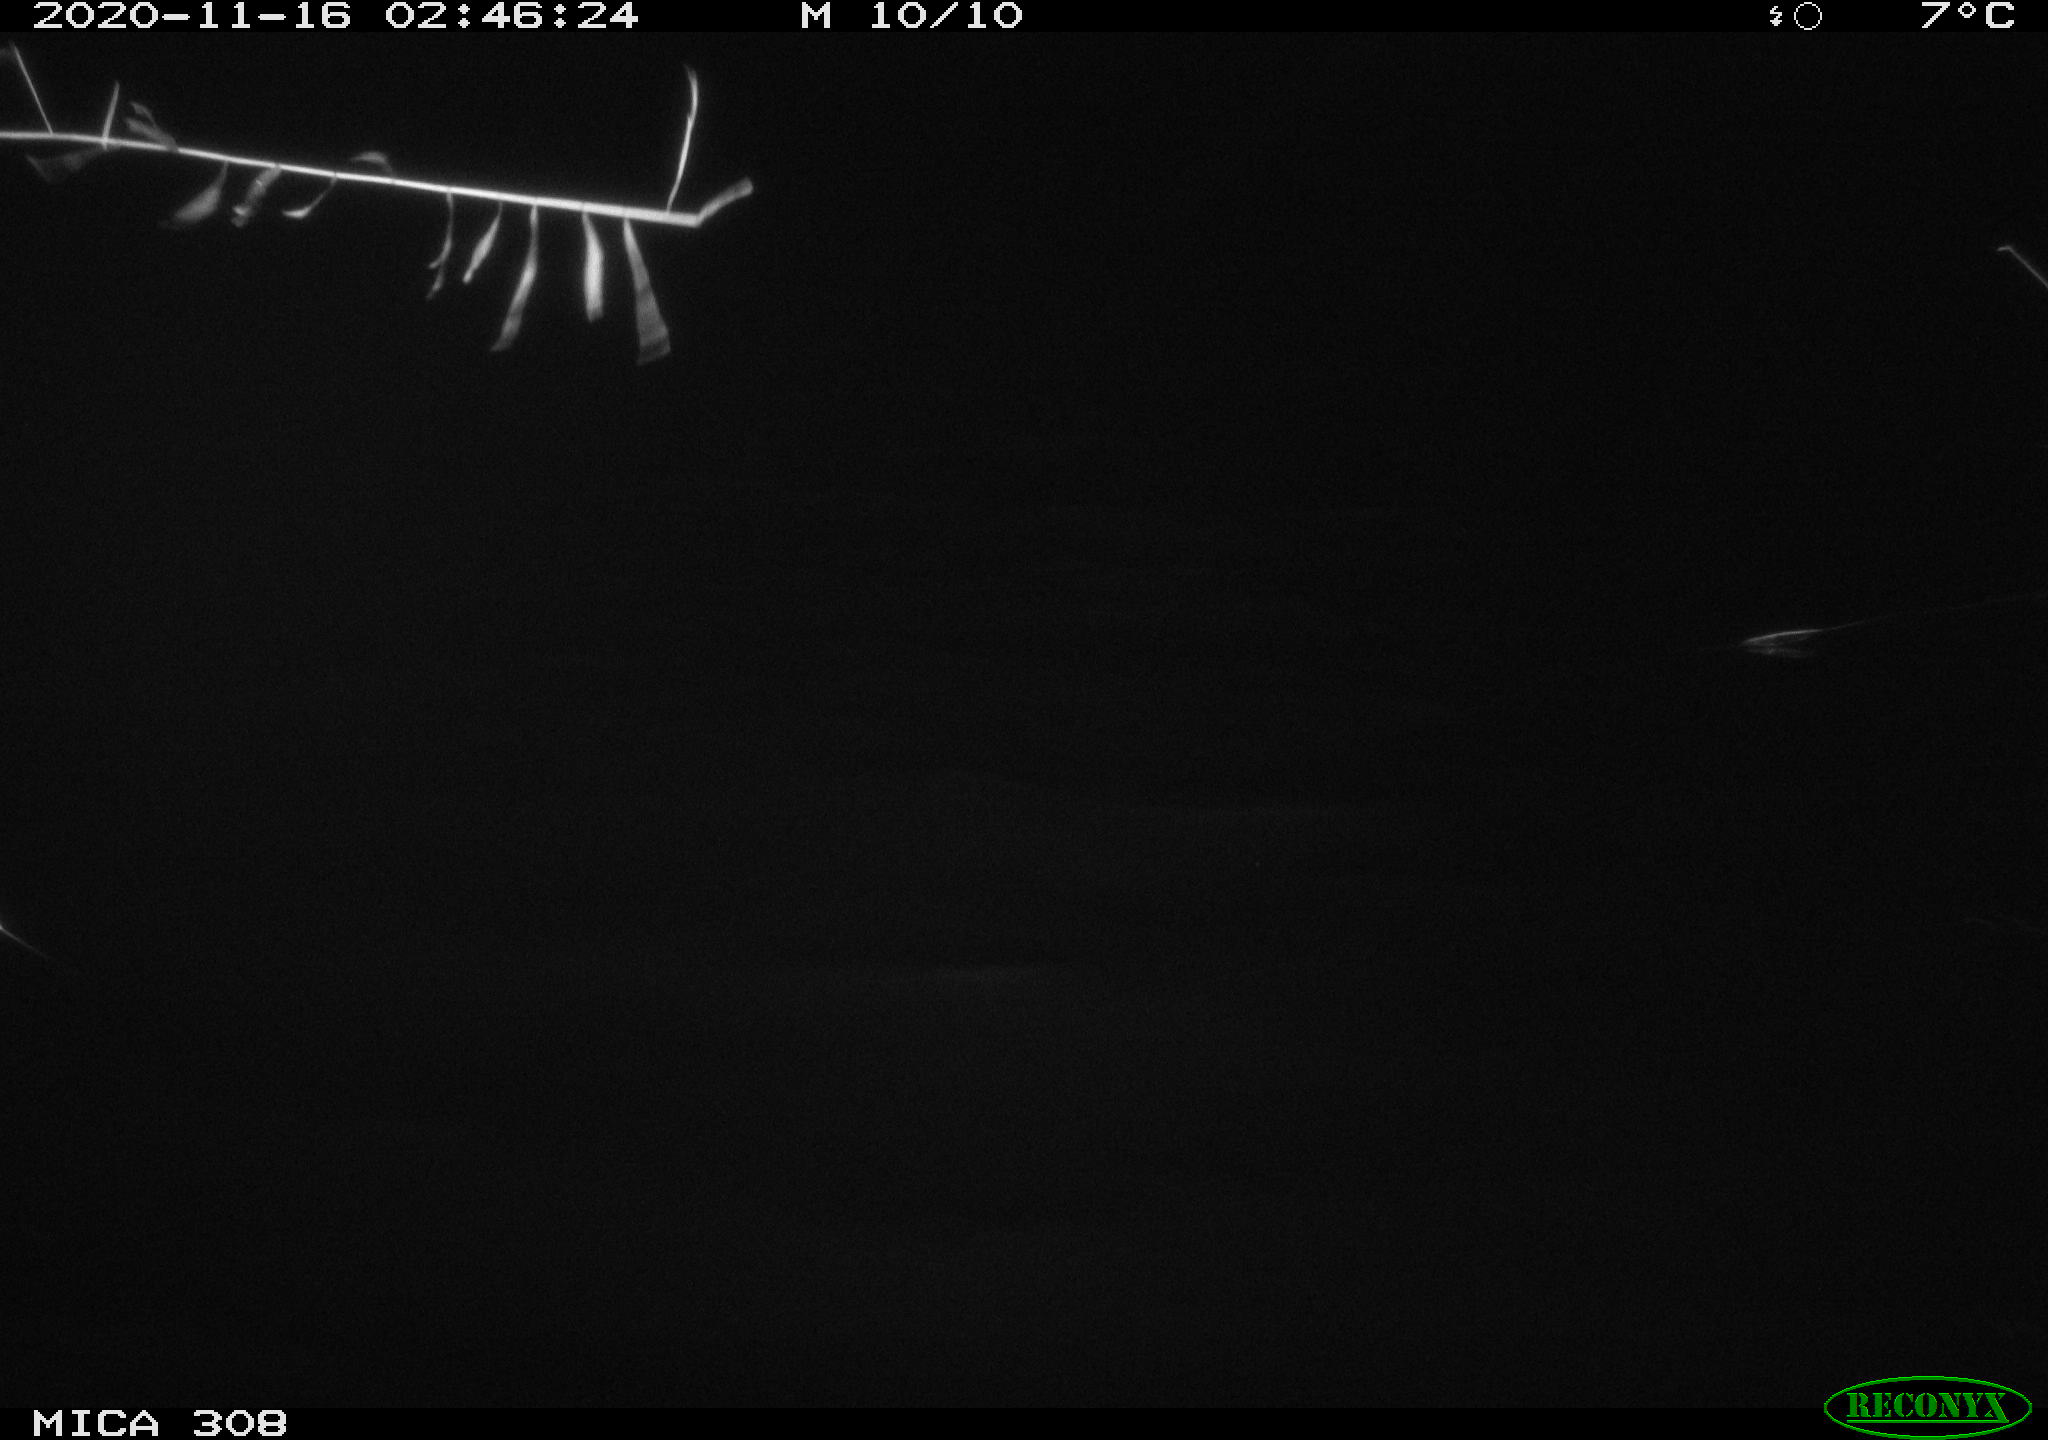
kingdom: Animalia
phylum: Chordata
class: Aves
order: Anseriformes
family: Anatidae
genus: Anas
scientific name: Anas platyrhynchos
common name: Mallard
